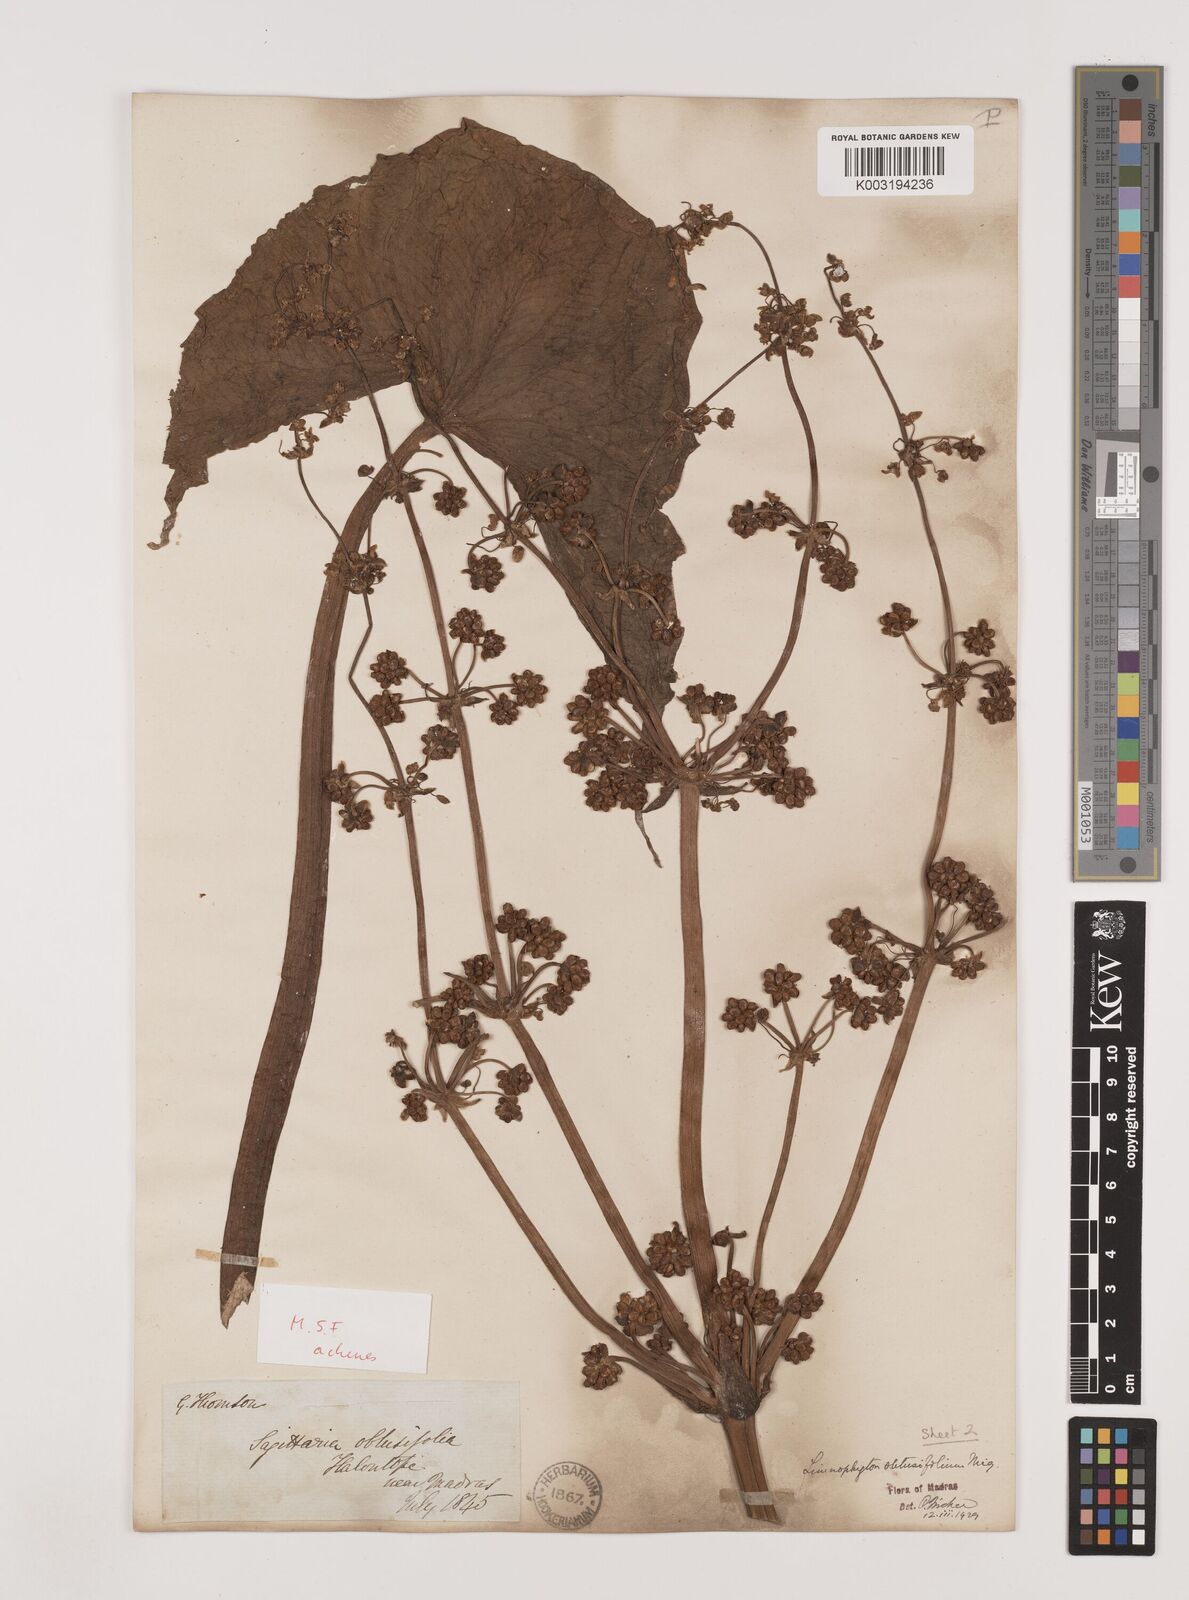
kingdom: Plantae
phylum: Tracheophyta
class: Liliopsida
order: Alismatales
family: Alismataceae
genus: Limnophyton
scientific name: Limnophyton obtusifolium
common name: Arrow head
